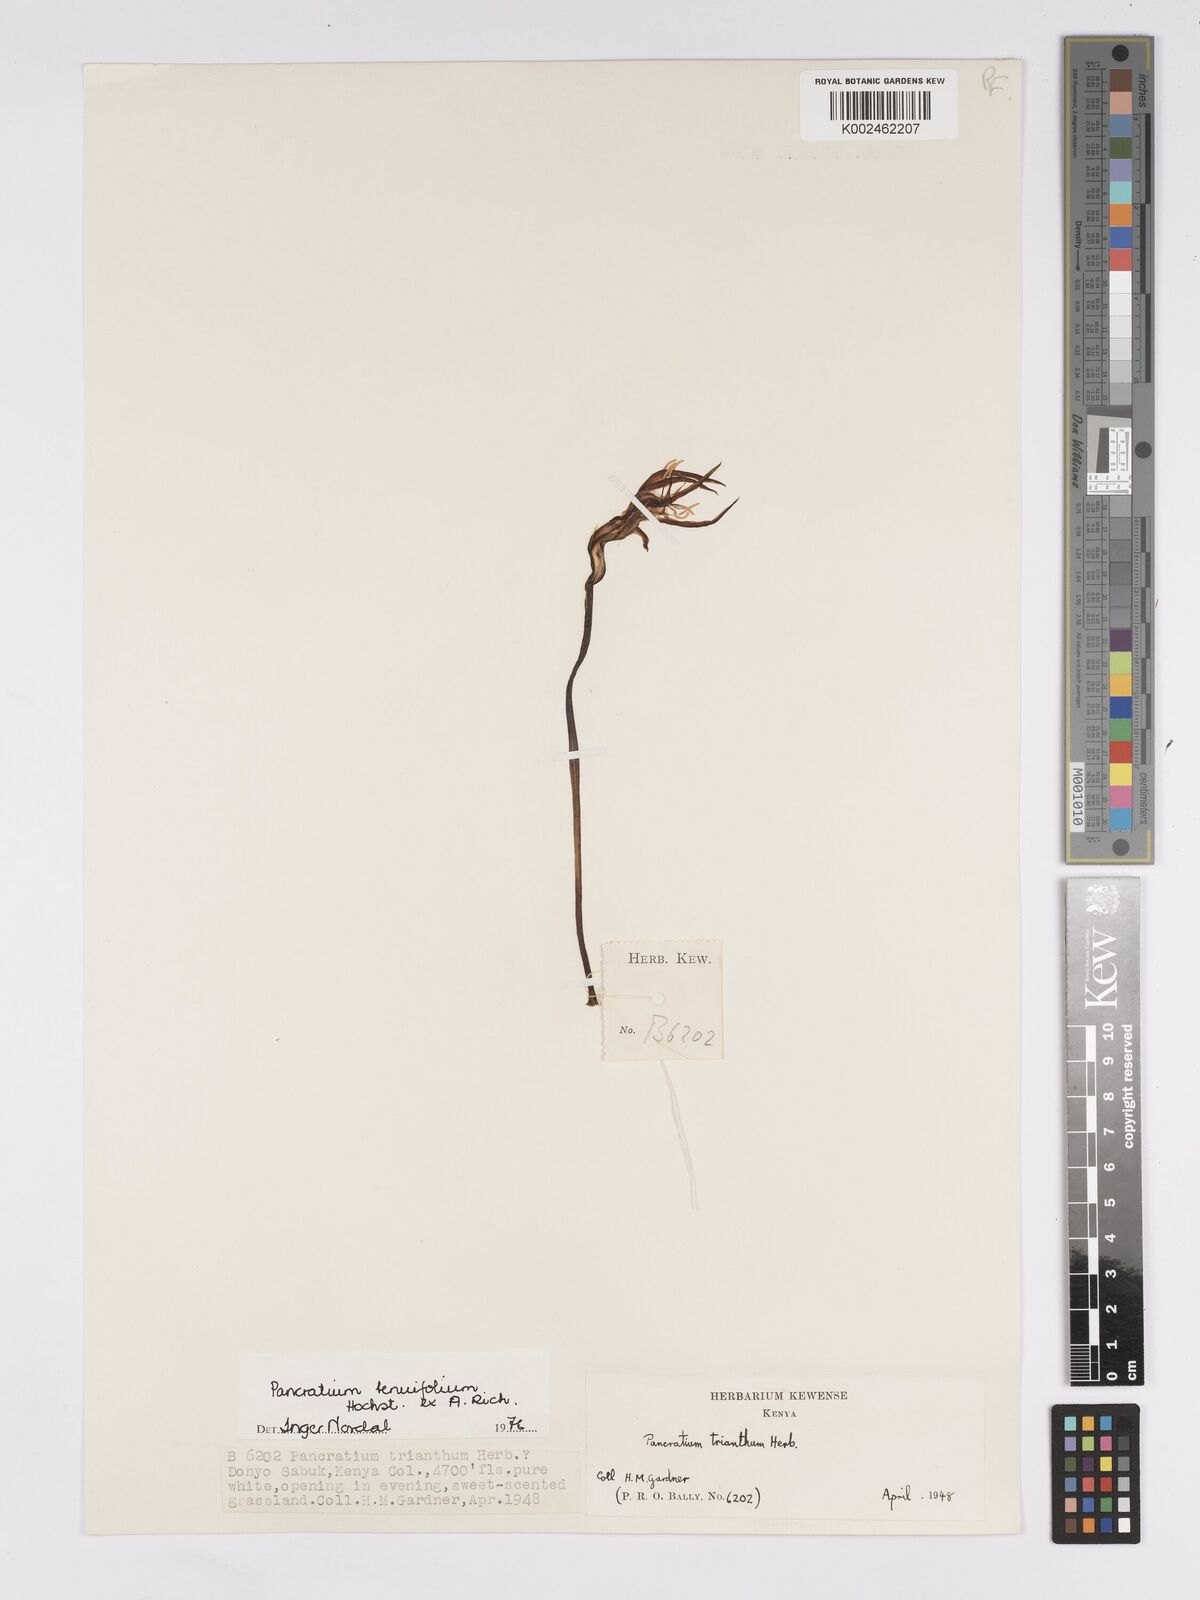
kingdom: Plantae
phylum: Tracheophyta
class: Liliopsida
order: Asparagales
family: Amaryllidaceae
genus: Pancratium
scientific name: Pancratium tenuifolium
